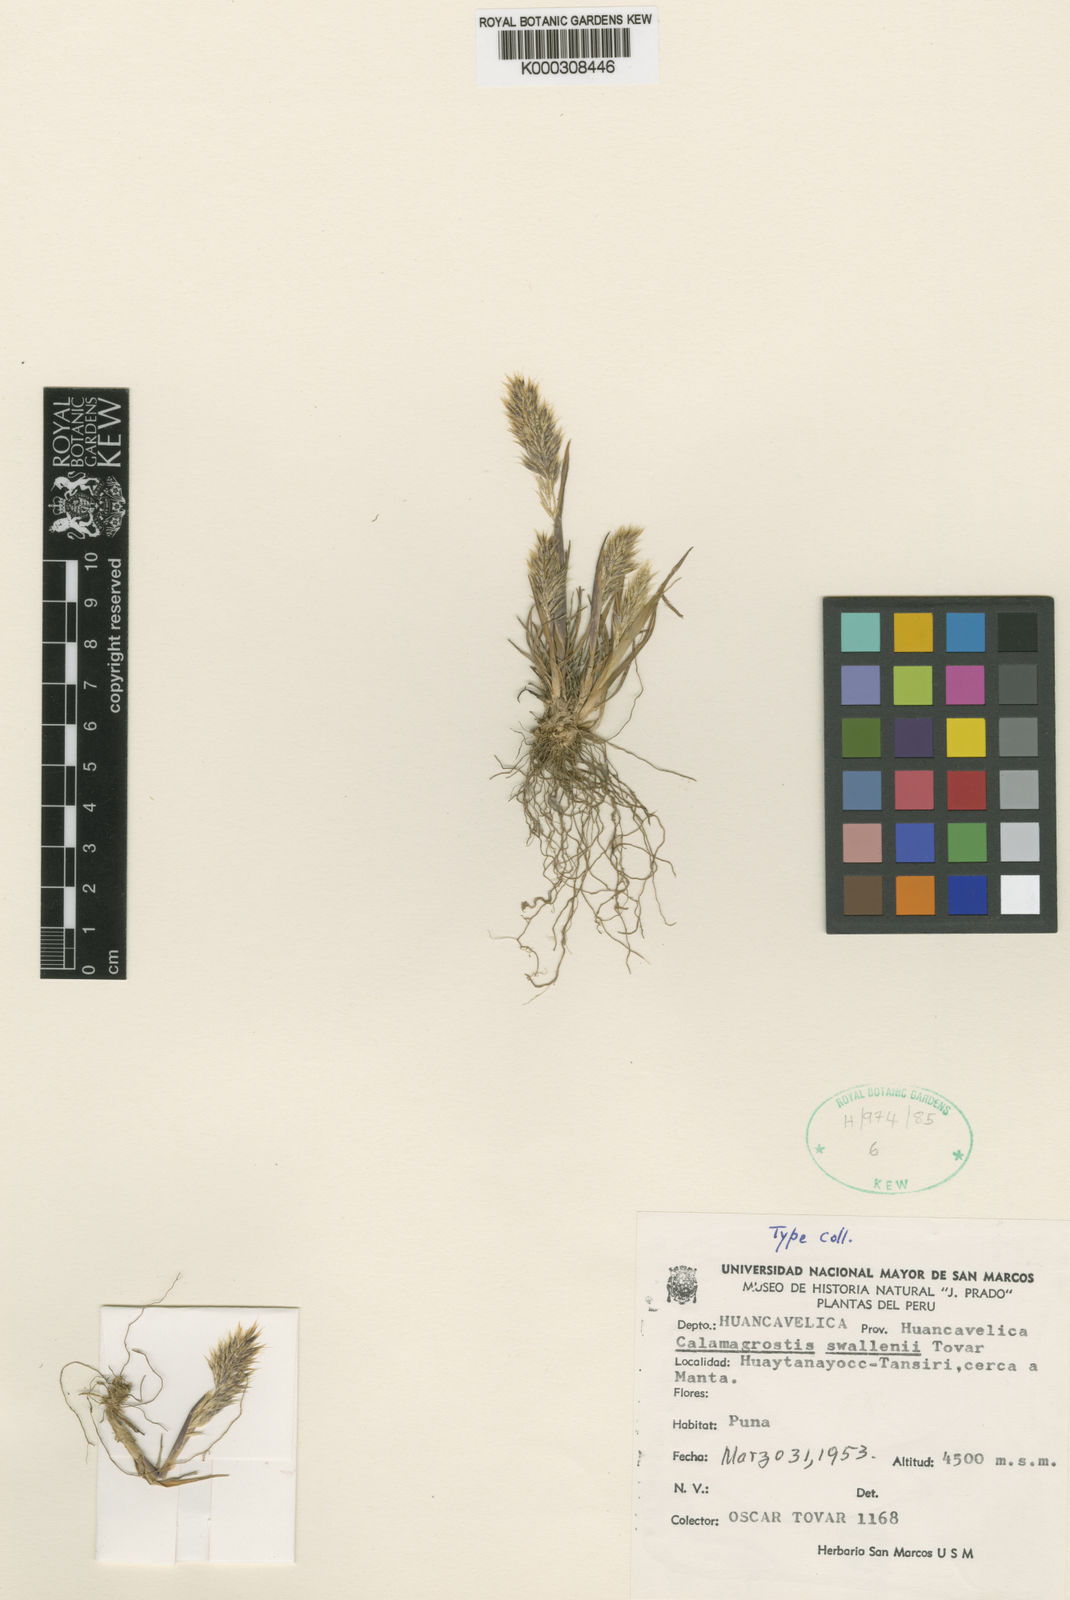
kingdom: Plantae
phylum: Tracheophyta
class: Liliopsida
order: Poales
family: Poaceae
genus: Cinnagrostis
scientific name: Cinnagrostis heterophylla
